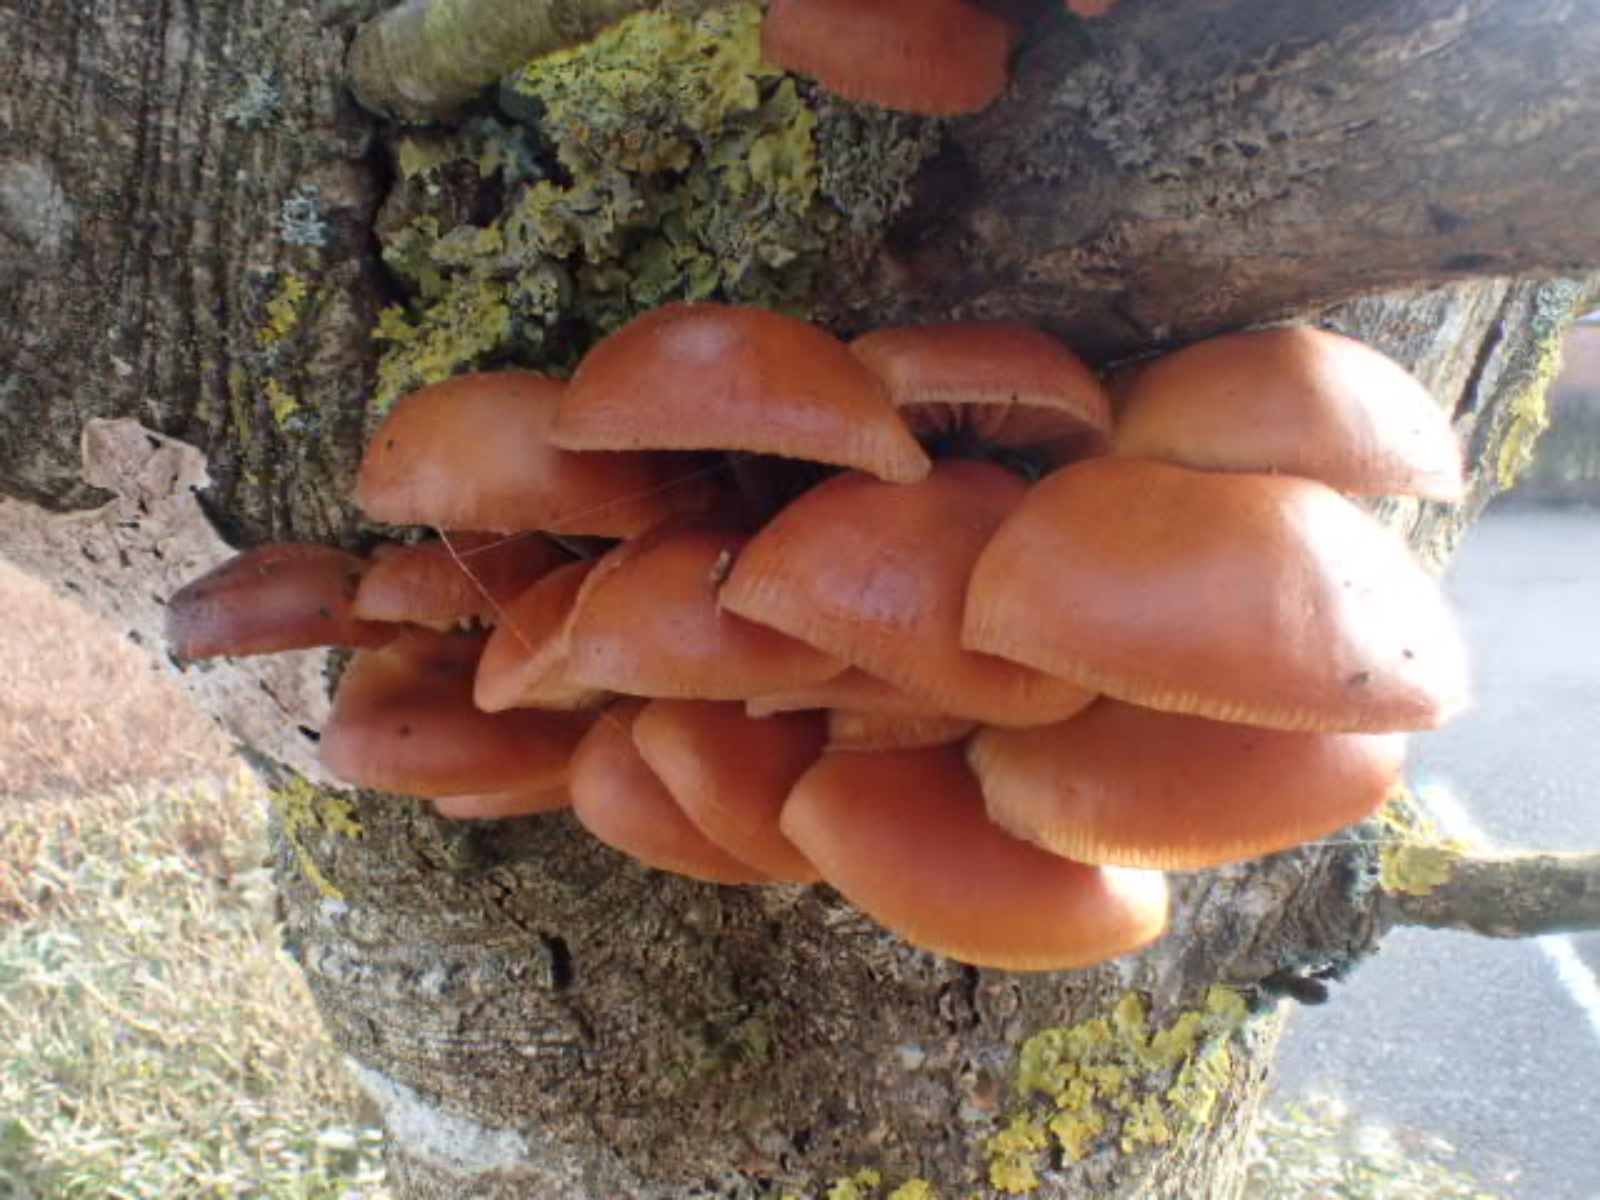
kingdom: Fungi
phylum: Basidiomycota
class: Agaricomycetes
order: Agaricales
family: Physalacriaceae
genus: Flammulina
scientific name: Flammulina velutipes
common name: gul fløjlsfod
